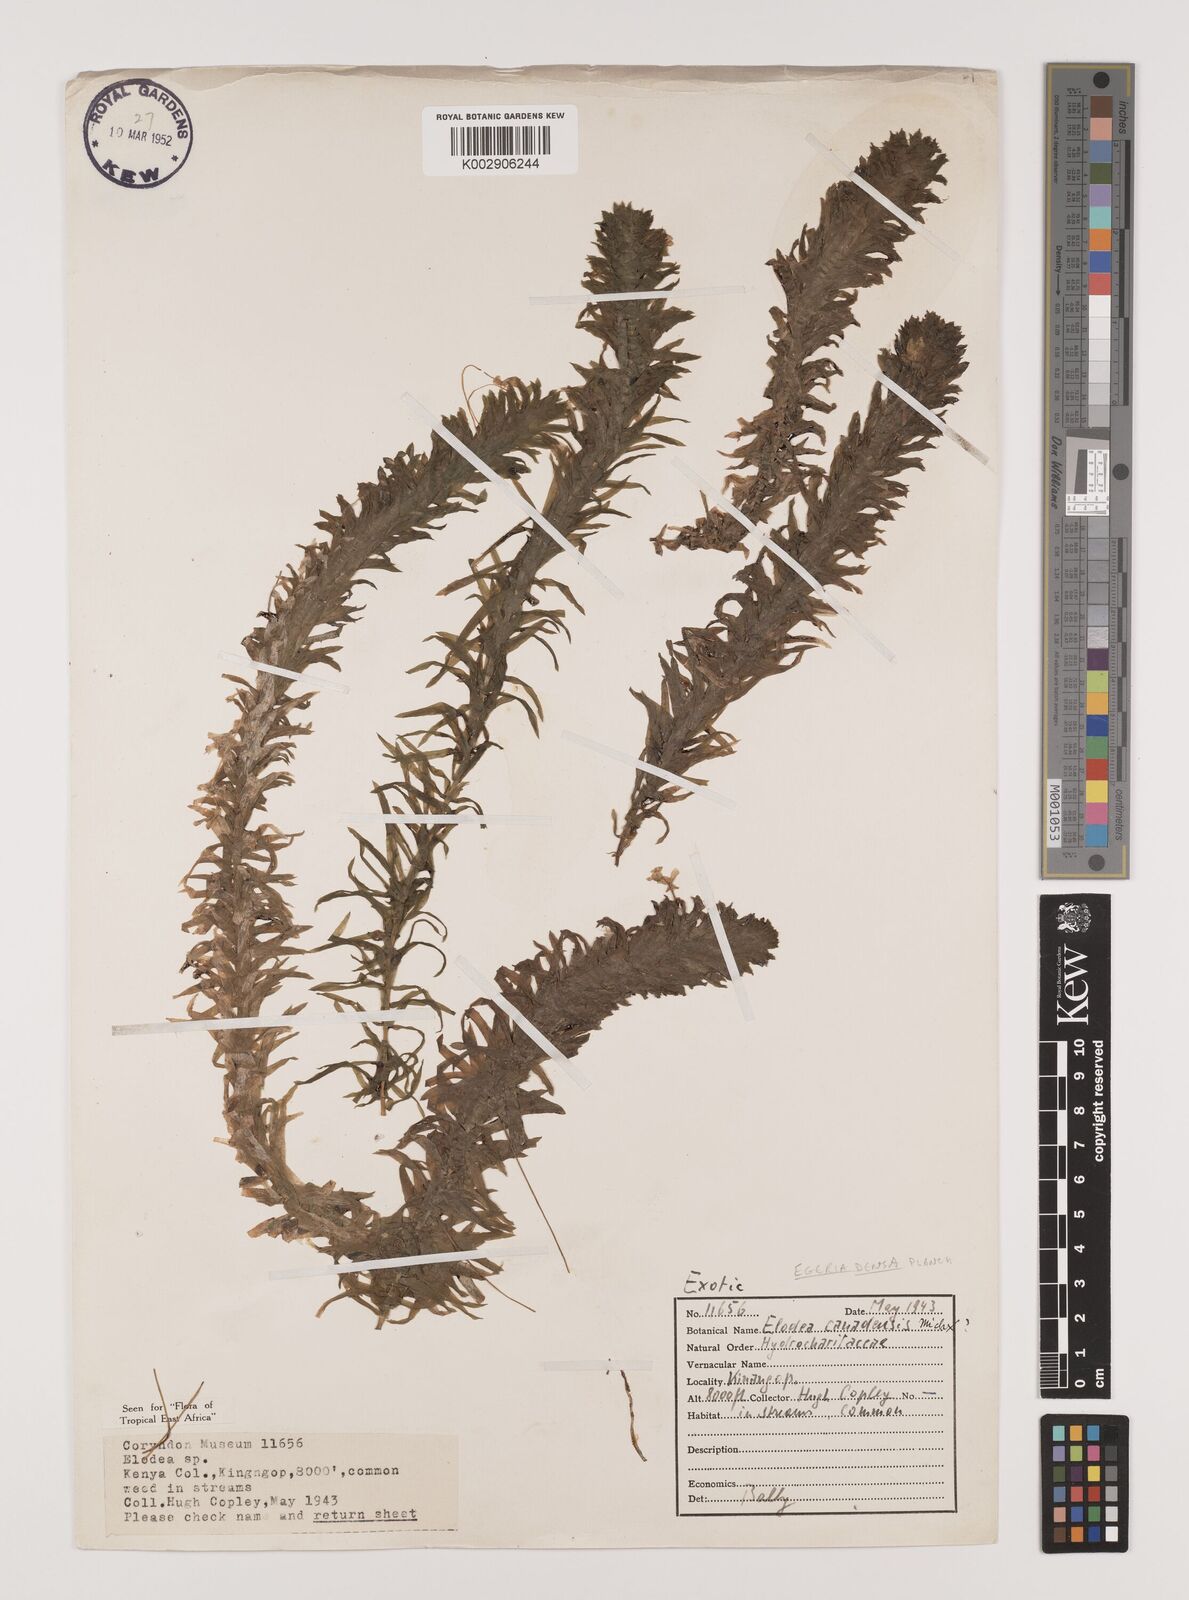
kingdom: Plantae
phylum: Tracheophyta
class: Liliopsida
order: Alismatales
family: Hydrocharitaceae
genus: Elodea
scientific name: Elodea densa
